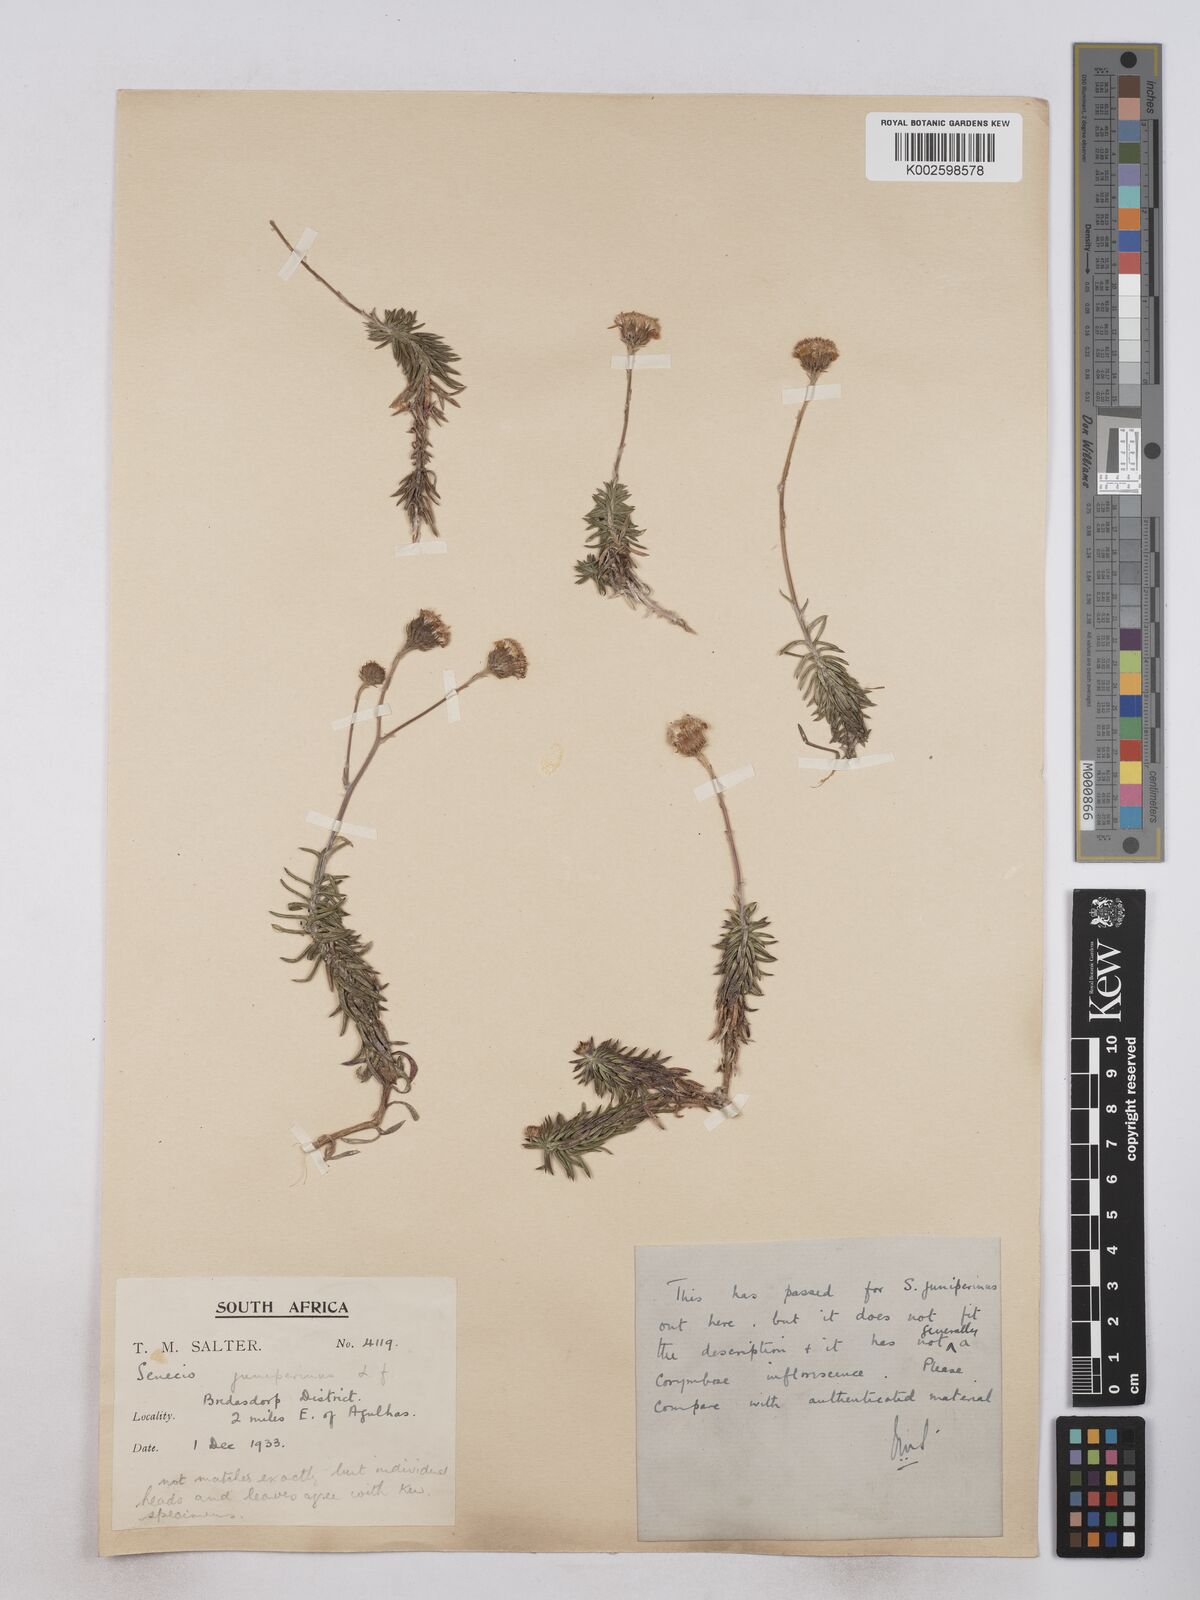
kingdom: Plantae
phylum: Tracheophyta
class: Magnoliopsida
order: Asterales
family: Asteraceae
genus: Senecio
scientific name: Senecio juniperinus
